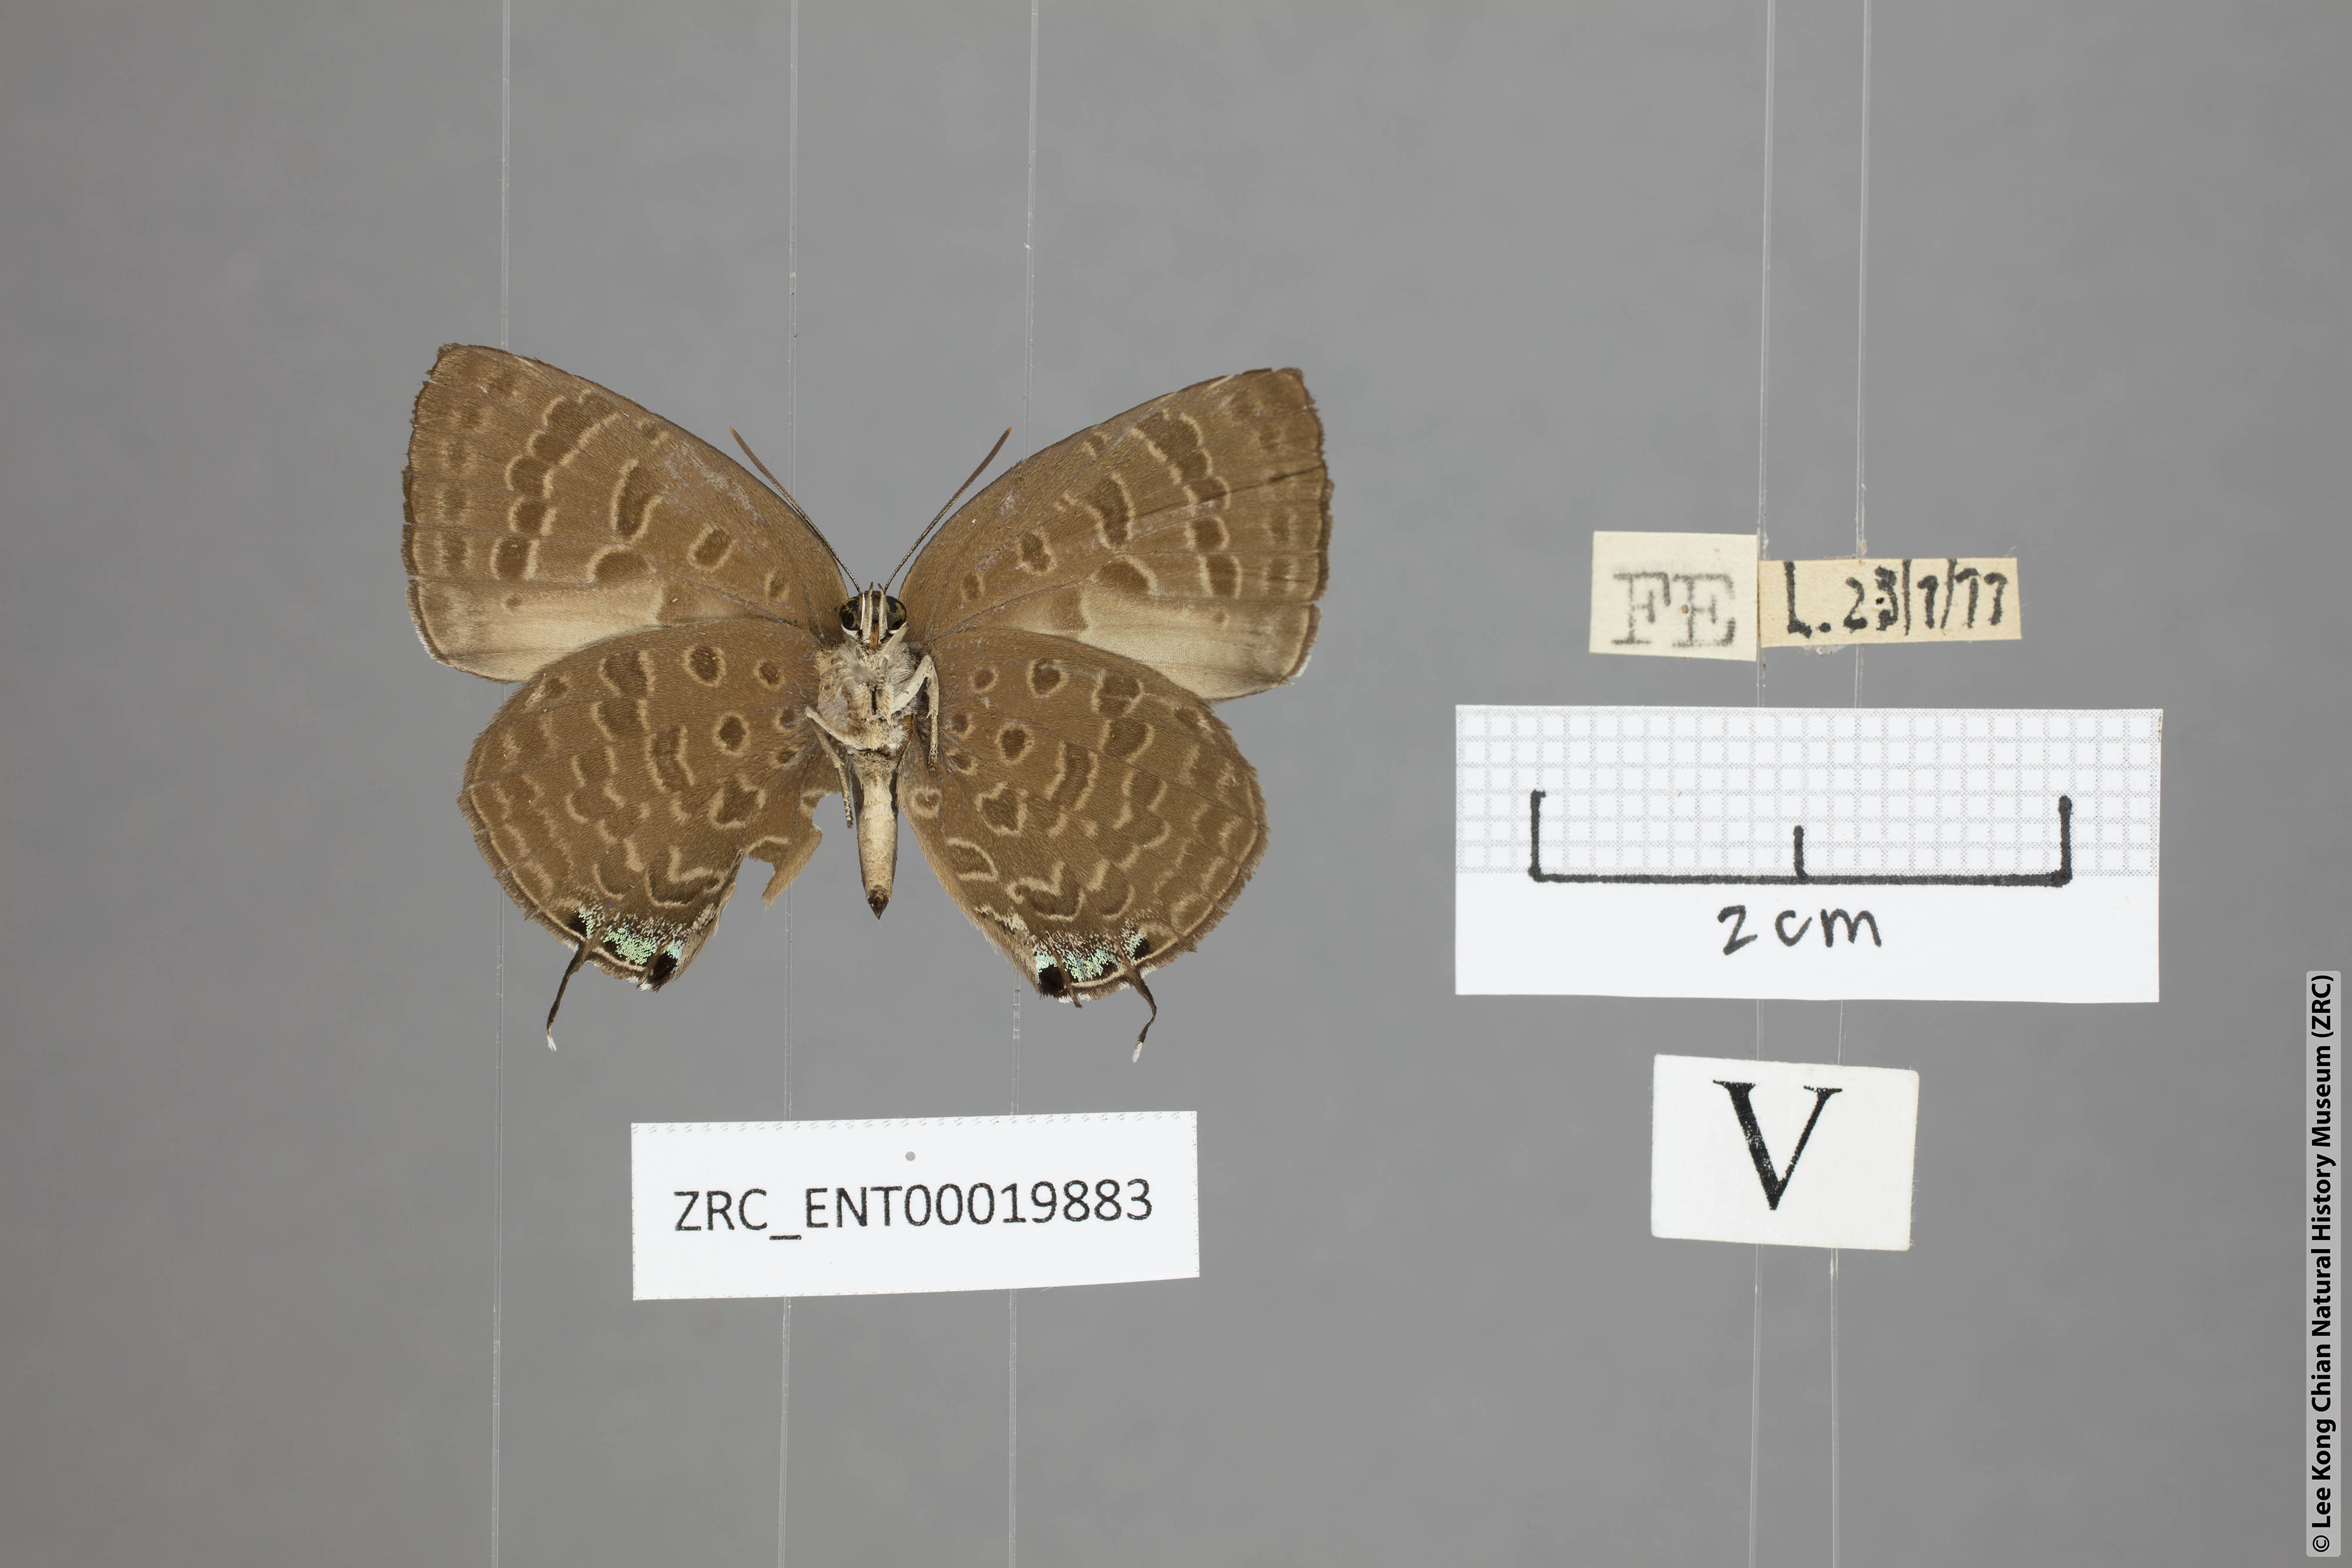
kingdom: Animalia
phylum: Arthropoda
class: Insecta
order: Lepidoptera
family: Lycaenidae
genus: Arhopala
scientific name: Arhopala sublustris
